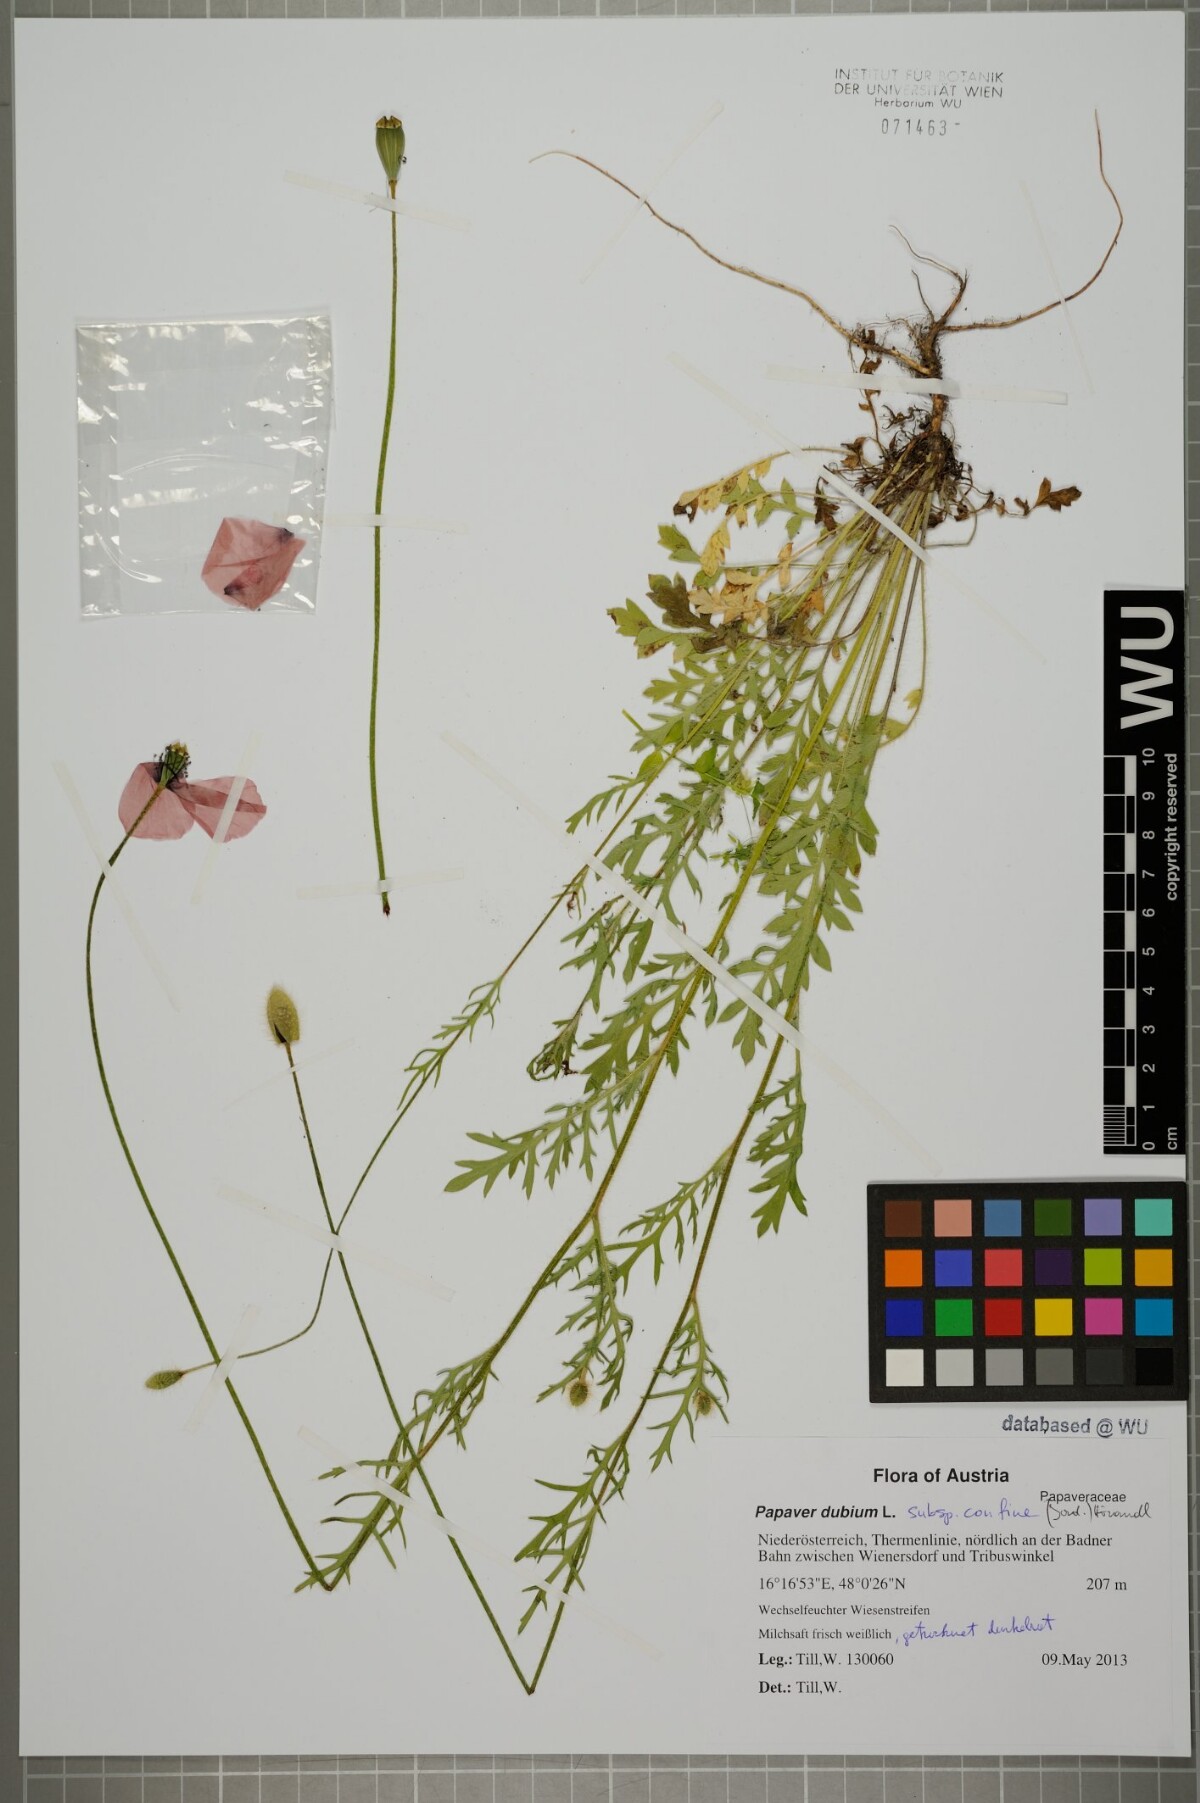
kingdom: Plantae
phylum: Tracheophyta
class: Magnoliopsida
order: Ranunculales
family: Papaveraceae
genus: Papaver
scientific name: Papaver confine
